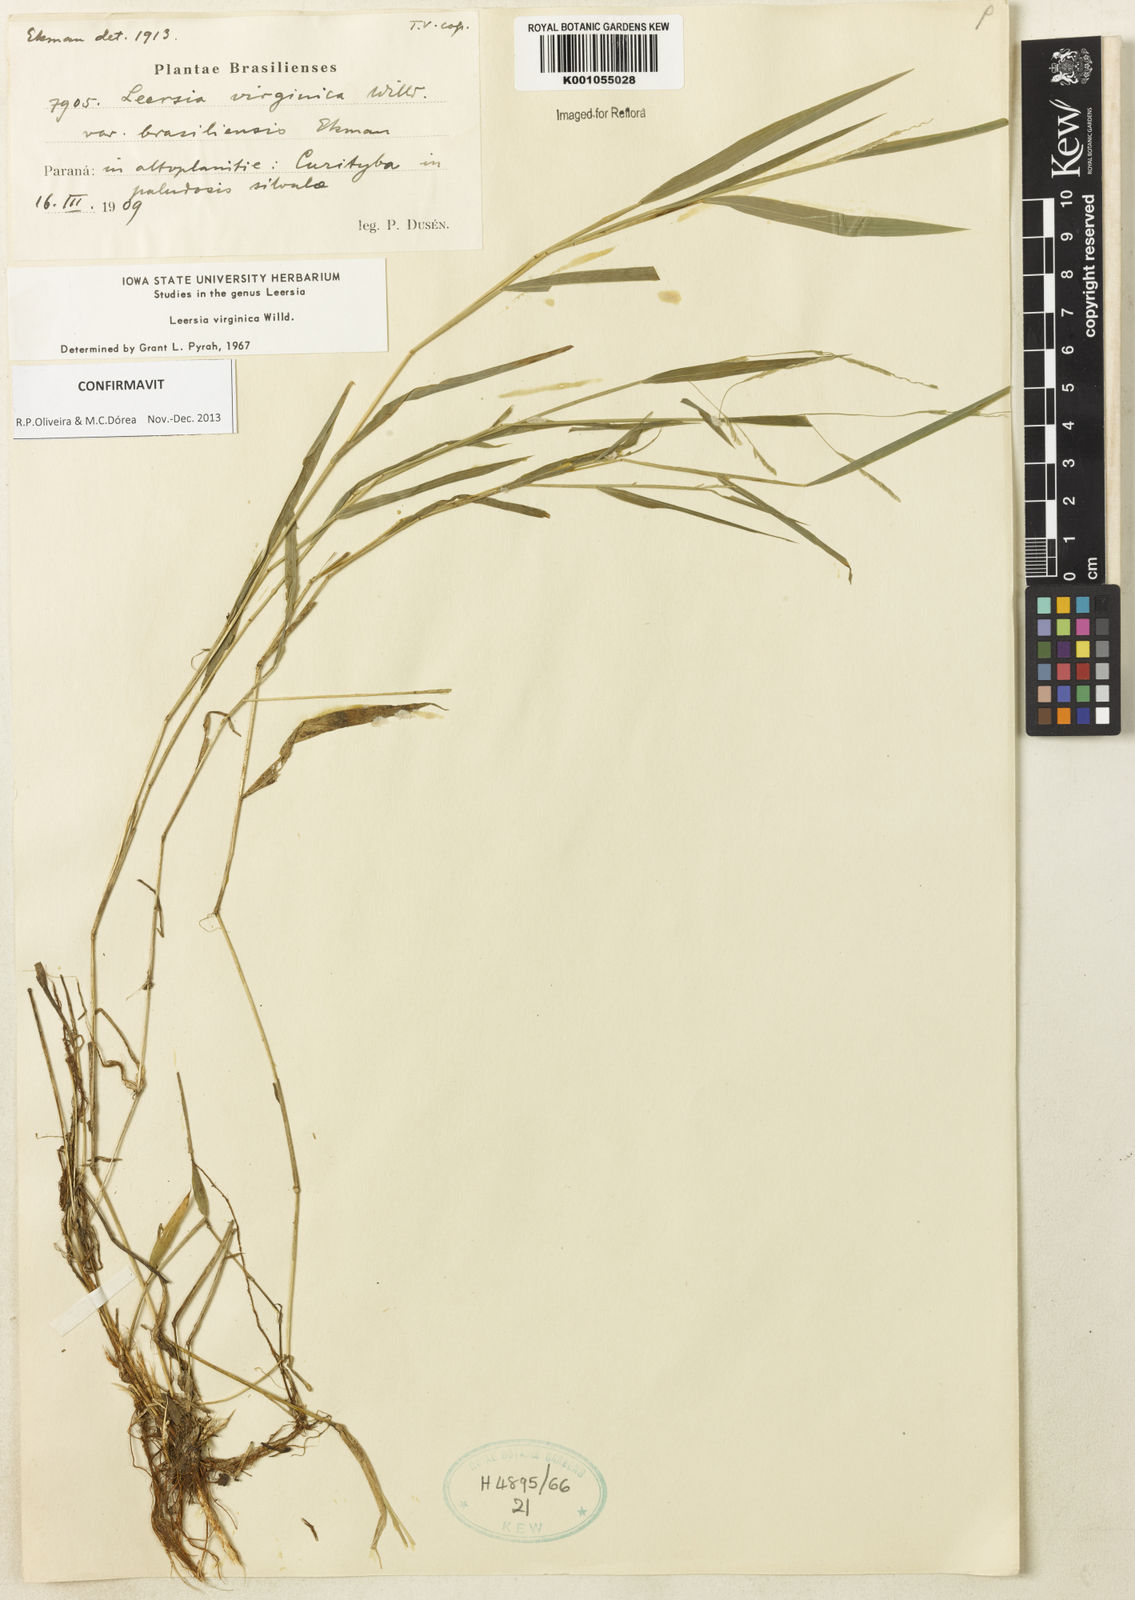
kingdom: Plantae
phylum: Tracheophyta
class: Liliopsida
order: Poales
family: Poaceae
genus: Leersia
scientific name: Leersia virginica
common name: White cutgrass
